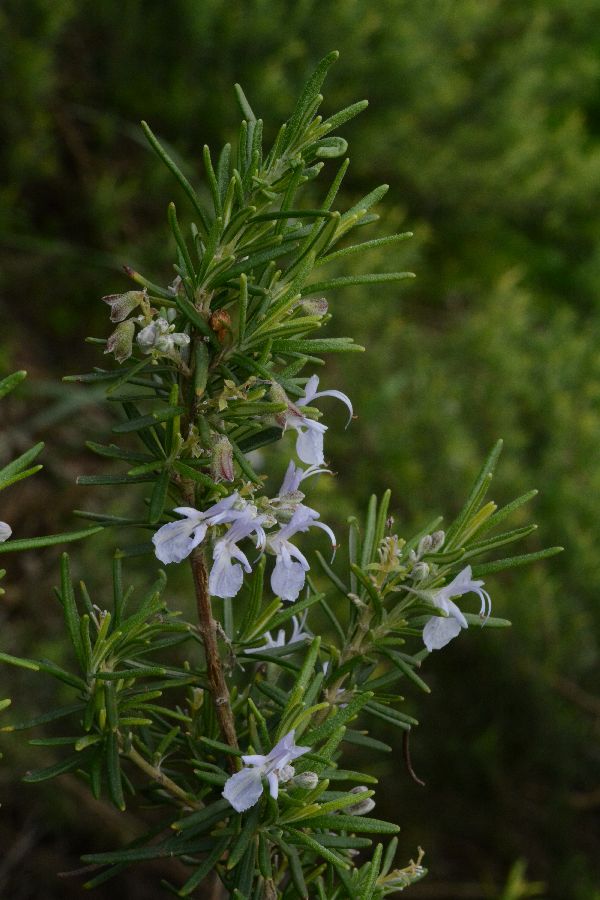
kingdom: Plantae
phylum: Tracheophyta
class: Magnoliopsida
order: Lamiales
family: Lamiaceae
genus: Salvia
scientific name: Salvia rosmarinus
